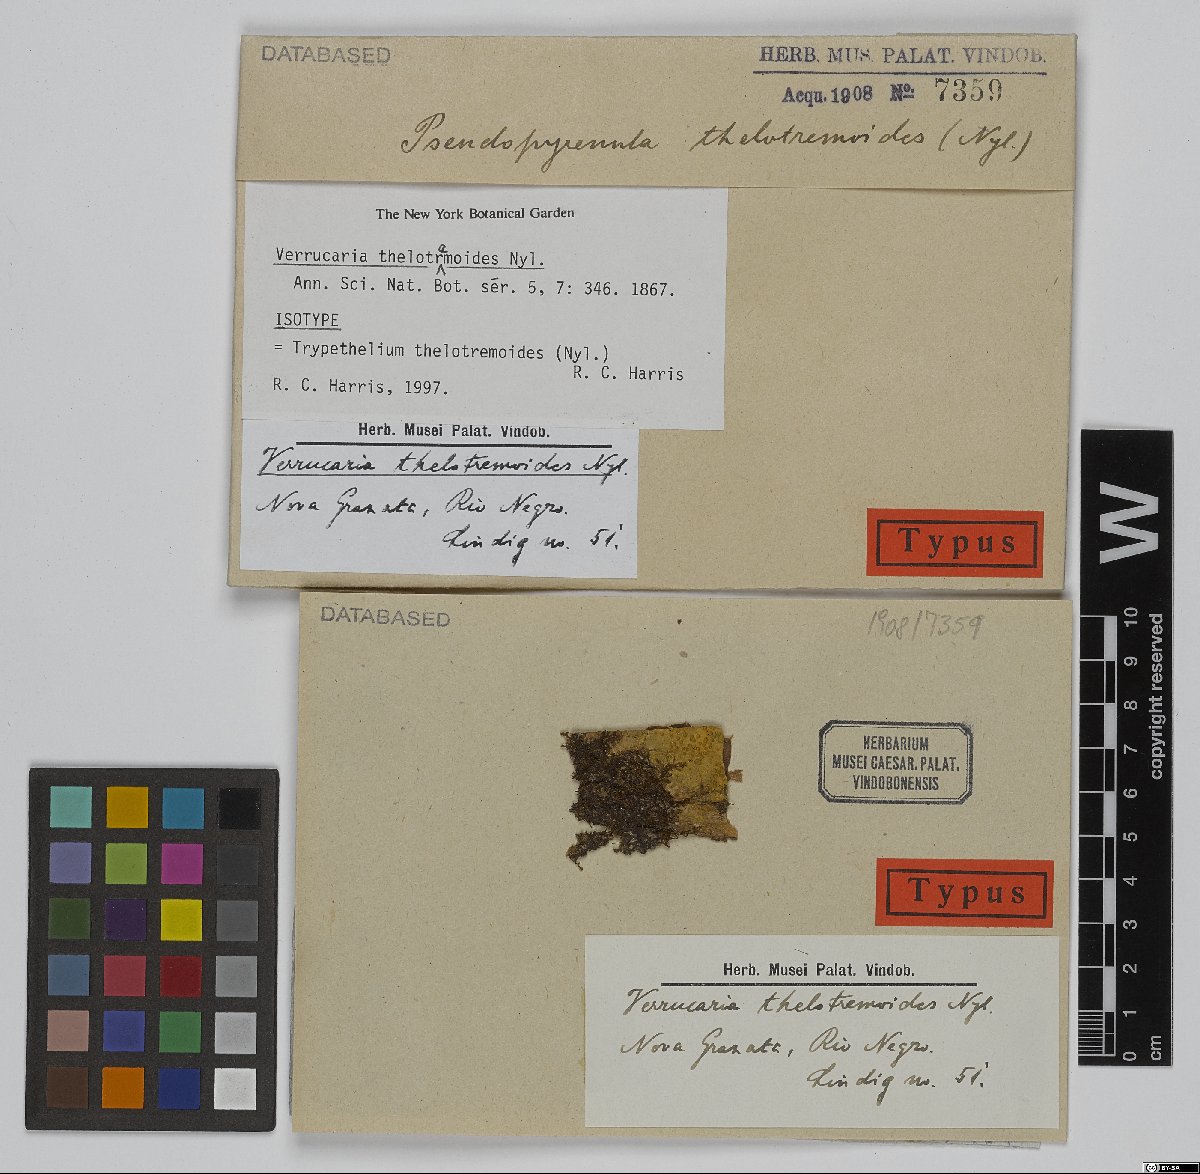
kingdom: Fungi
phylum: Ascomycota
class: Dothideomycetes
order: Trypetheliales
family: Trypetheliaceae
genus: Astrothelium
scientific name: Astrothelium thelotremoides
